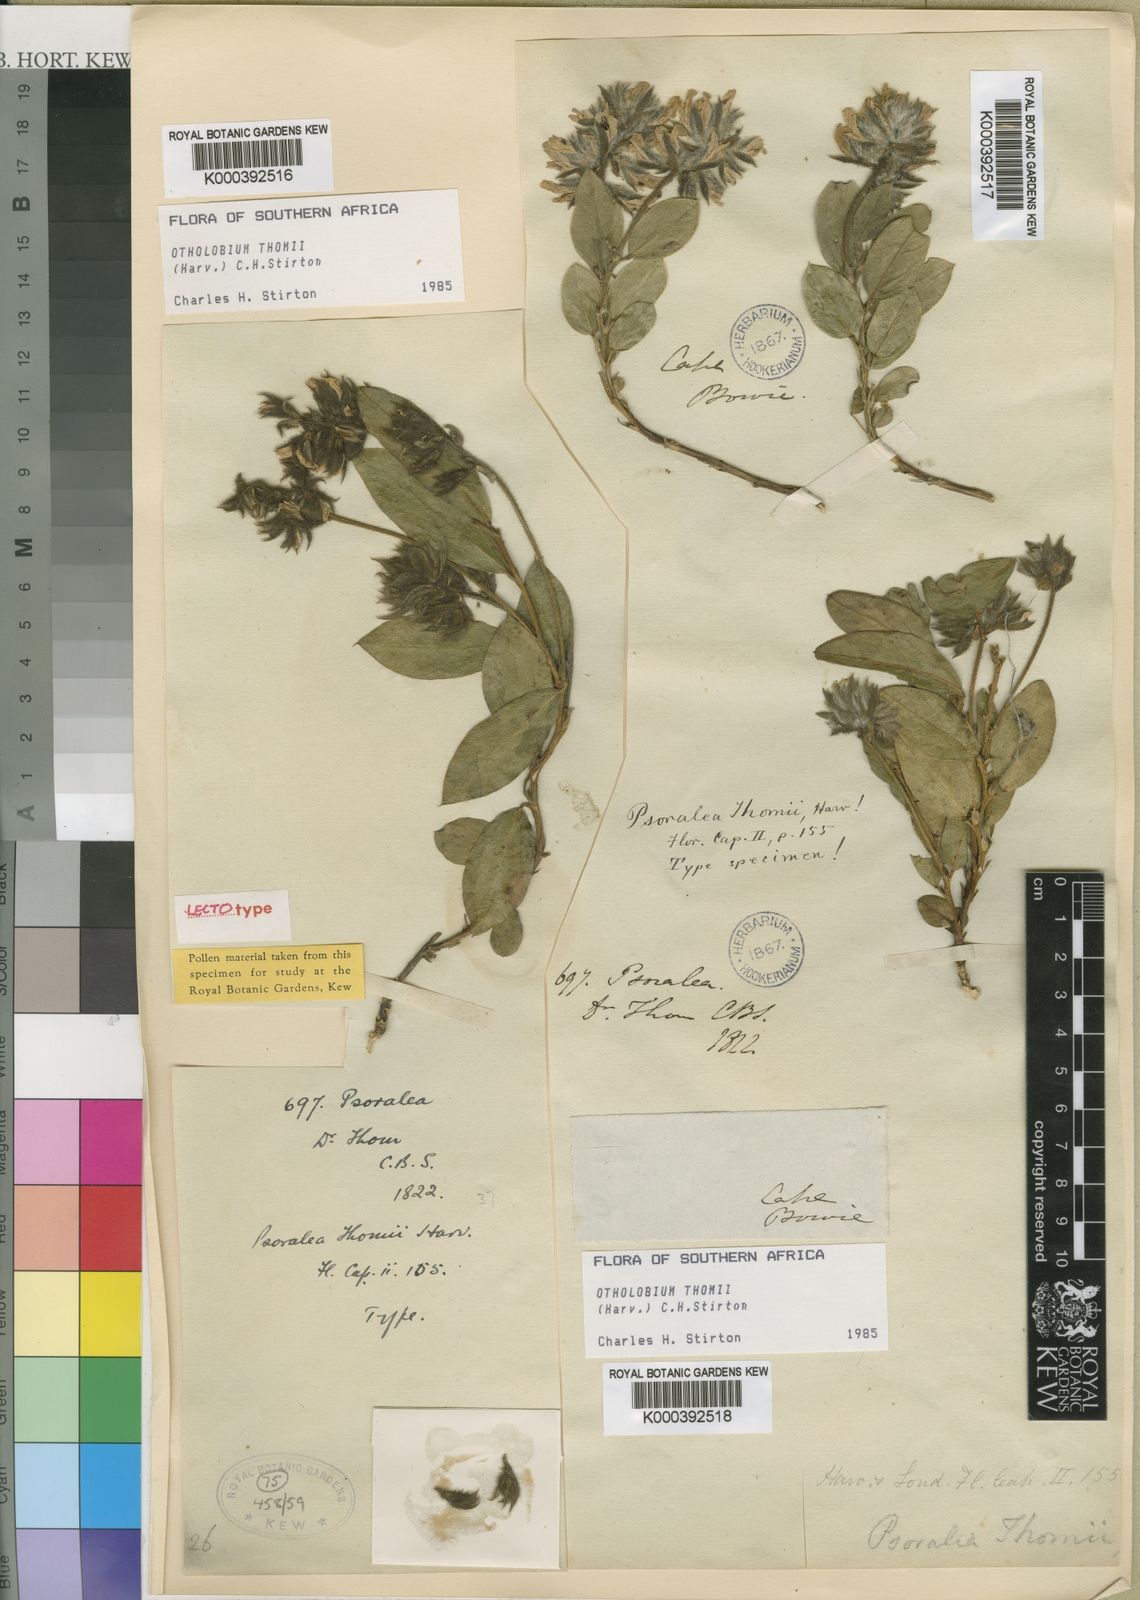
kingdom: Plantae
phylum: Tracheophyta
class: Magnoliopsida
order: Fabales
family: Fabaceae
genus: Psoralea
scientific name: Psoralea thomii
